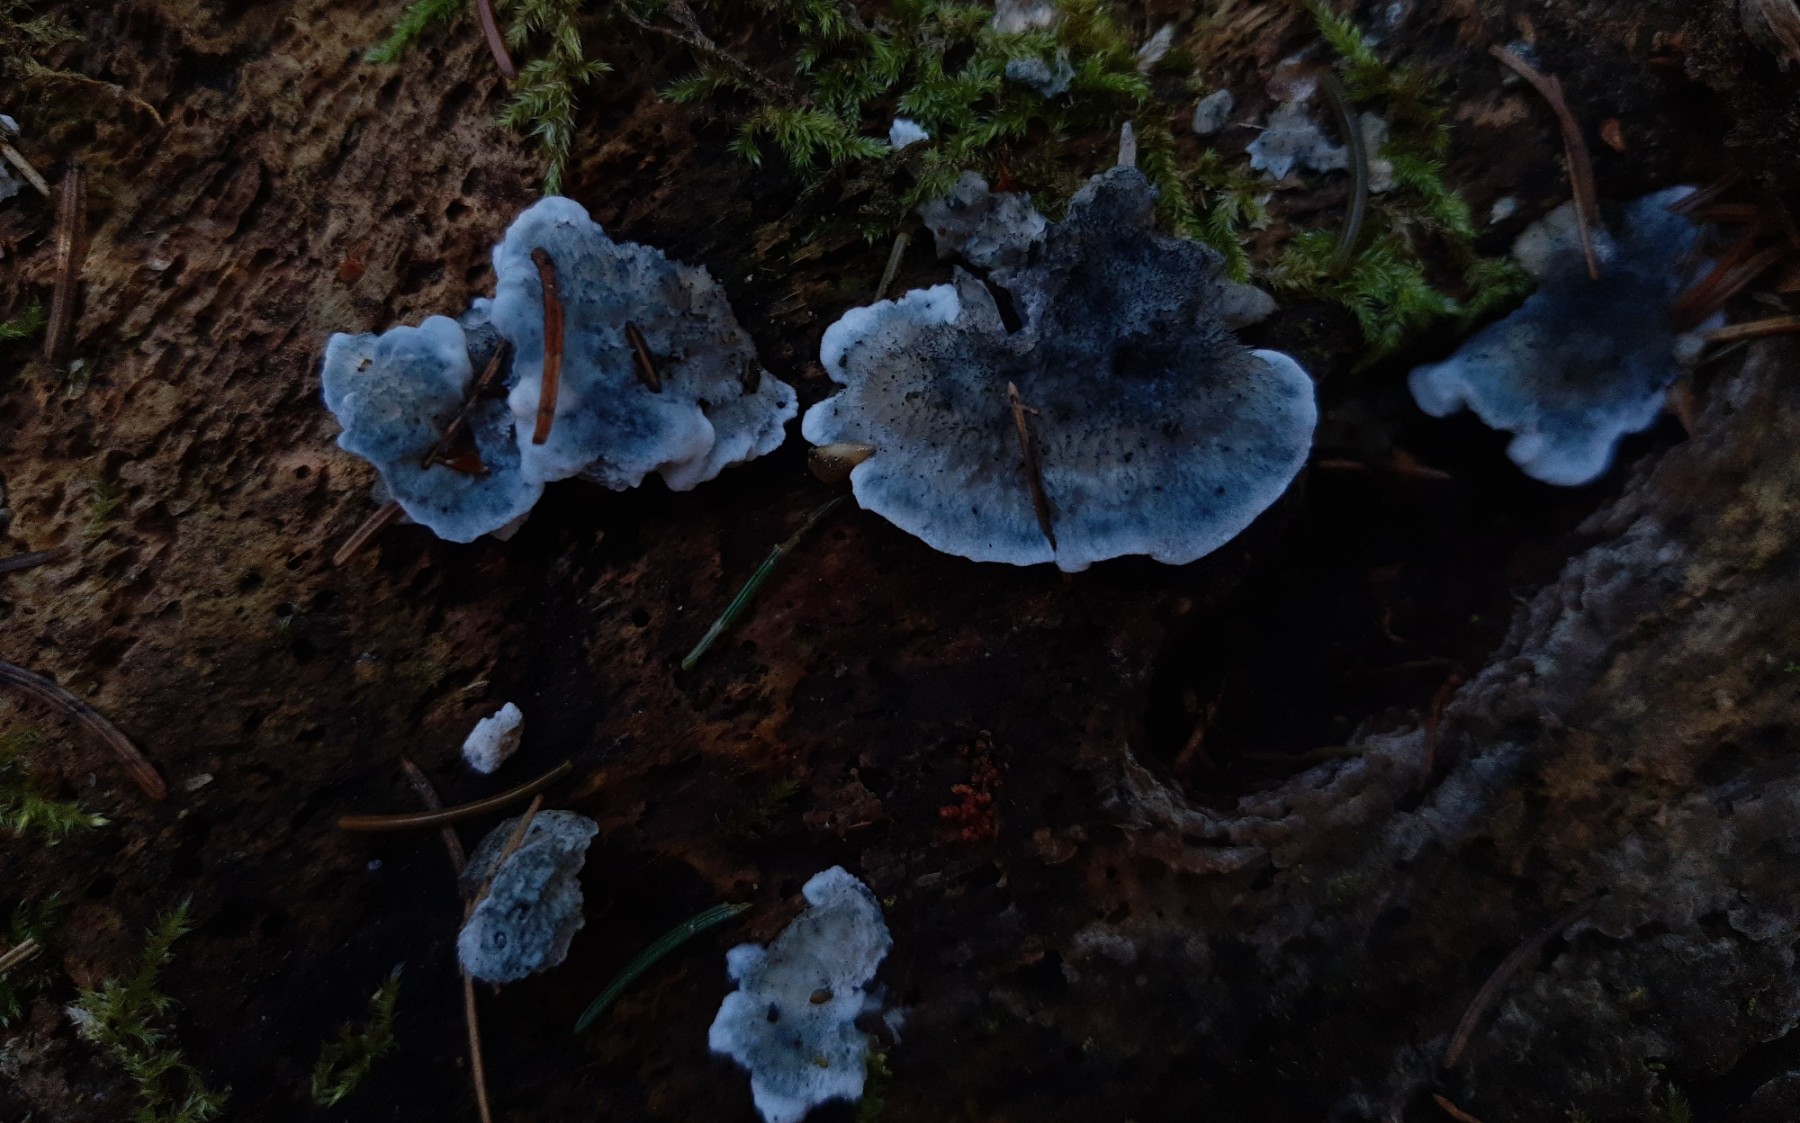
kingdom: Fungi
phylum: Basidiomycota
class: Agaricomycetes
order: Polyporales
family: Polyporaceae
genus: Cyanosporus
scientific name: Cyanosporus caesius
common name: blålig kødporesvamp
